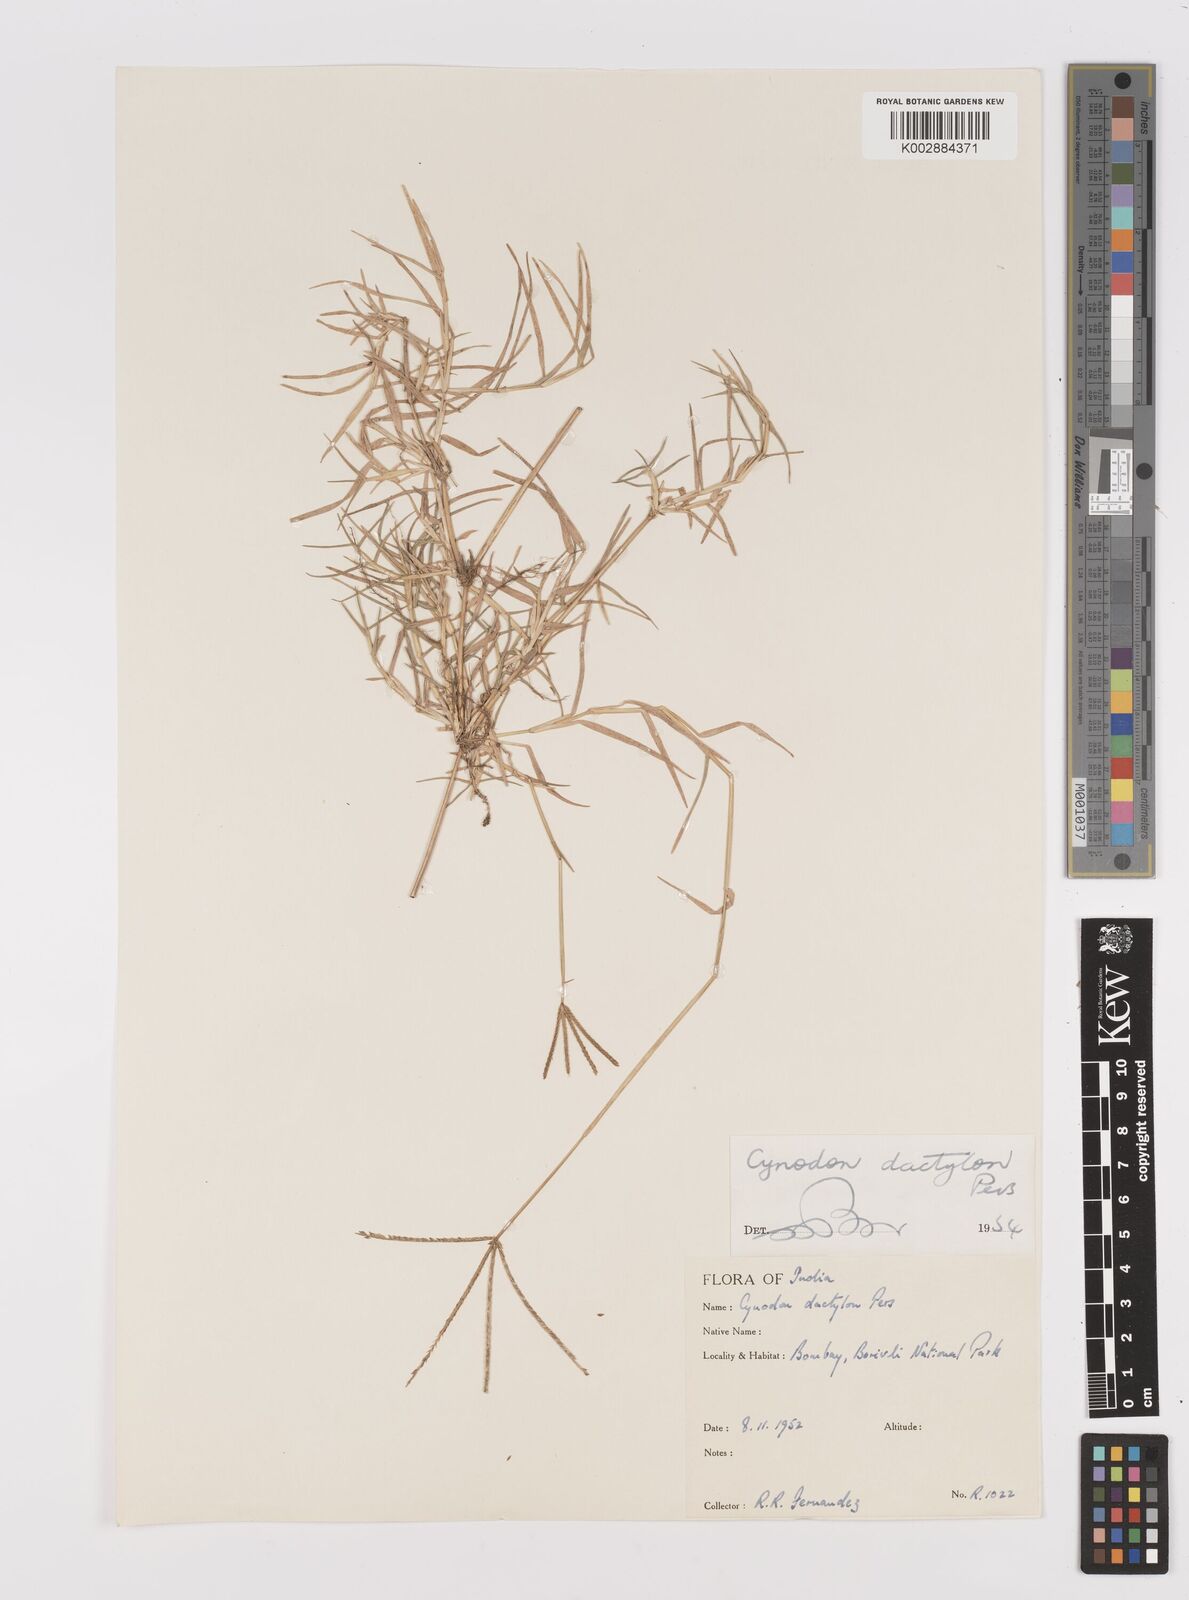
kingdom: Plantae
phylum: Tracheophyta
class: Liliopsida
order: Poales
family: Poaceae
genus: Cynodon
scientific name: Cynodon dactylon
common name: Bermuda grass
